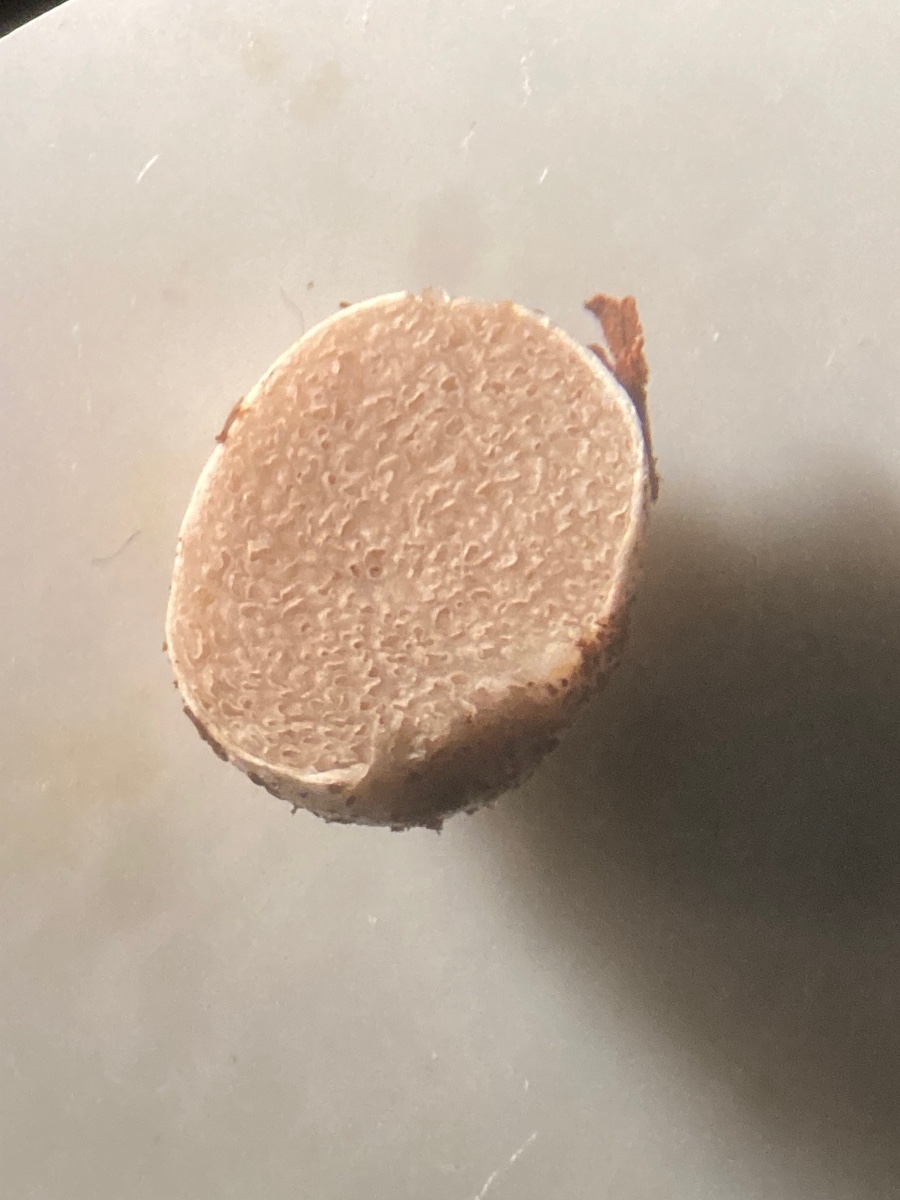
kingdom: Fungi
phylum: Basidiomycota
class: Agaricomycetes
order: Agaricales
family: Hymenogastraceae
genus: Hymenogaster
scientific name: Hymenogaster
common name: knoldtrøffel
